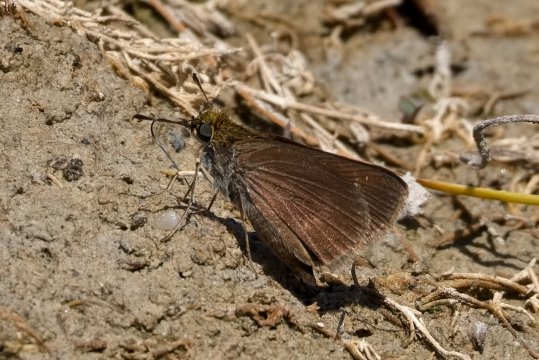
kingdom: Animalia
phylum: Arthropoda
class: Insecta
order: Lepidoptera
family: Hesperiidae
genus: Euphyes
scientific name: Euphyes vestris
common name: Dun Skipper
